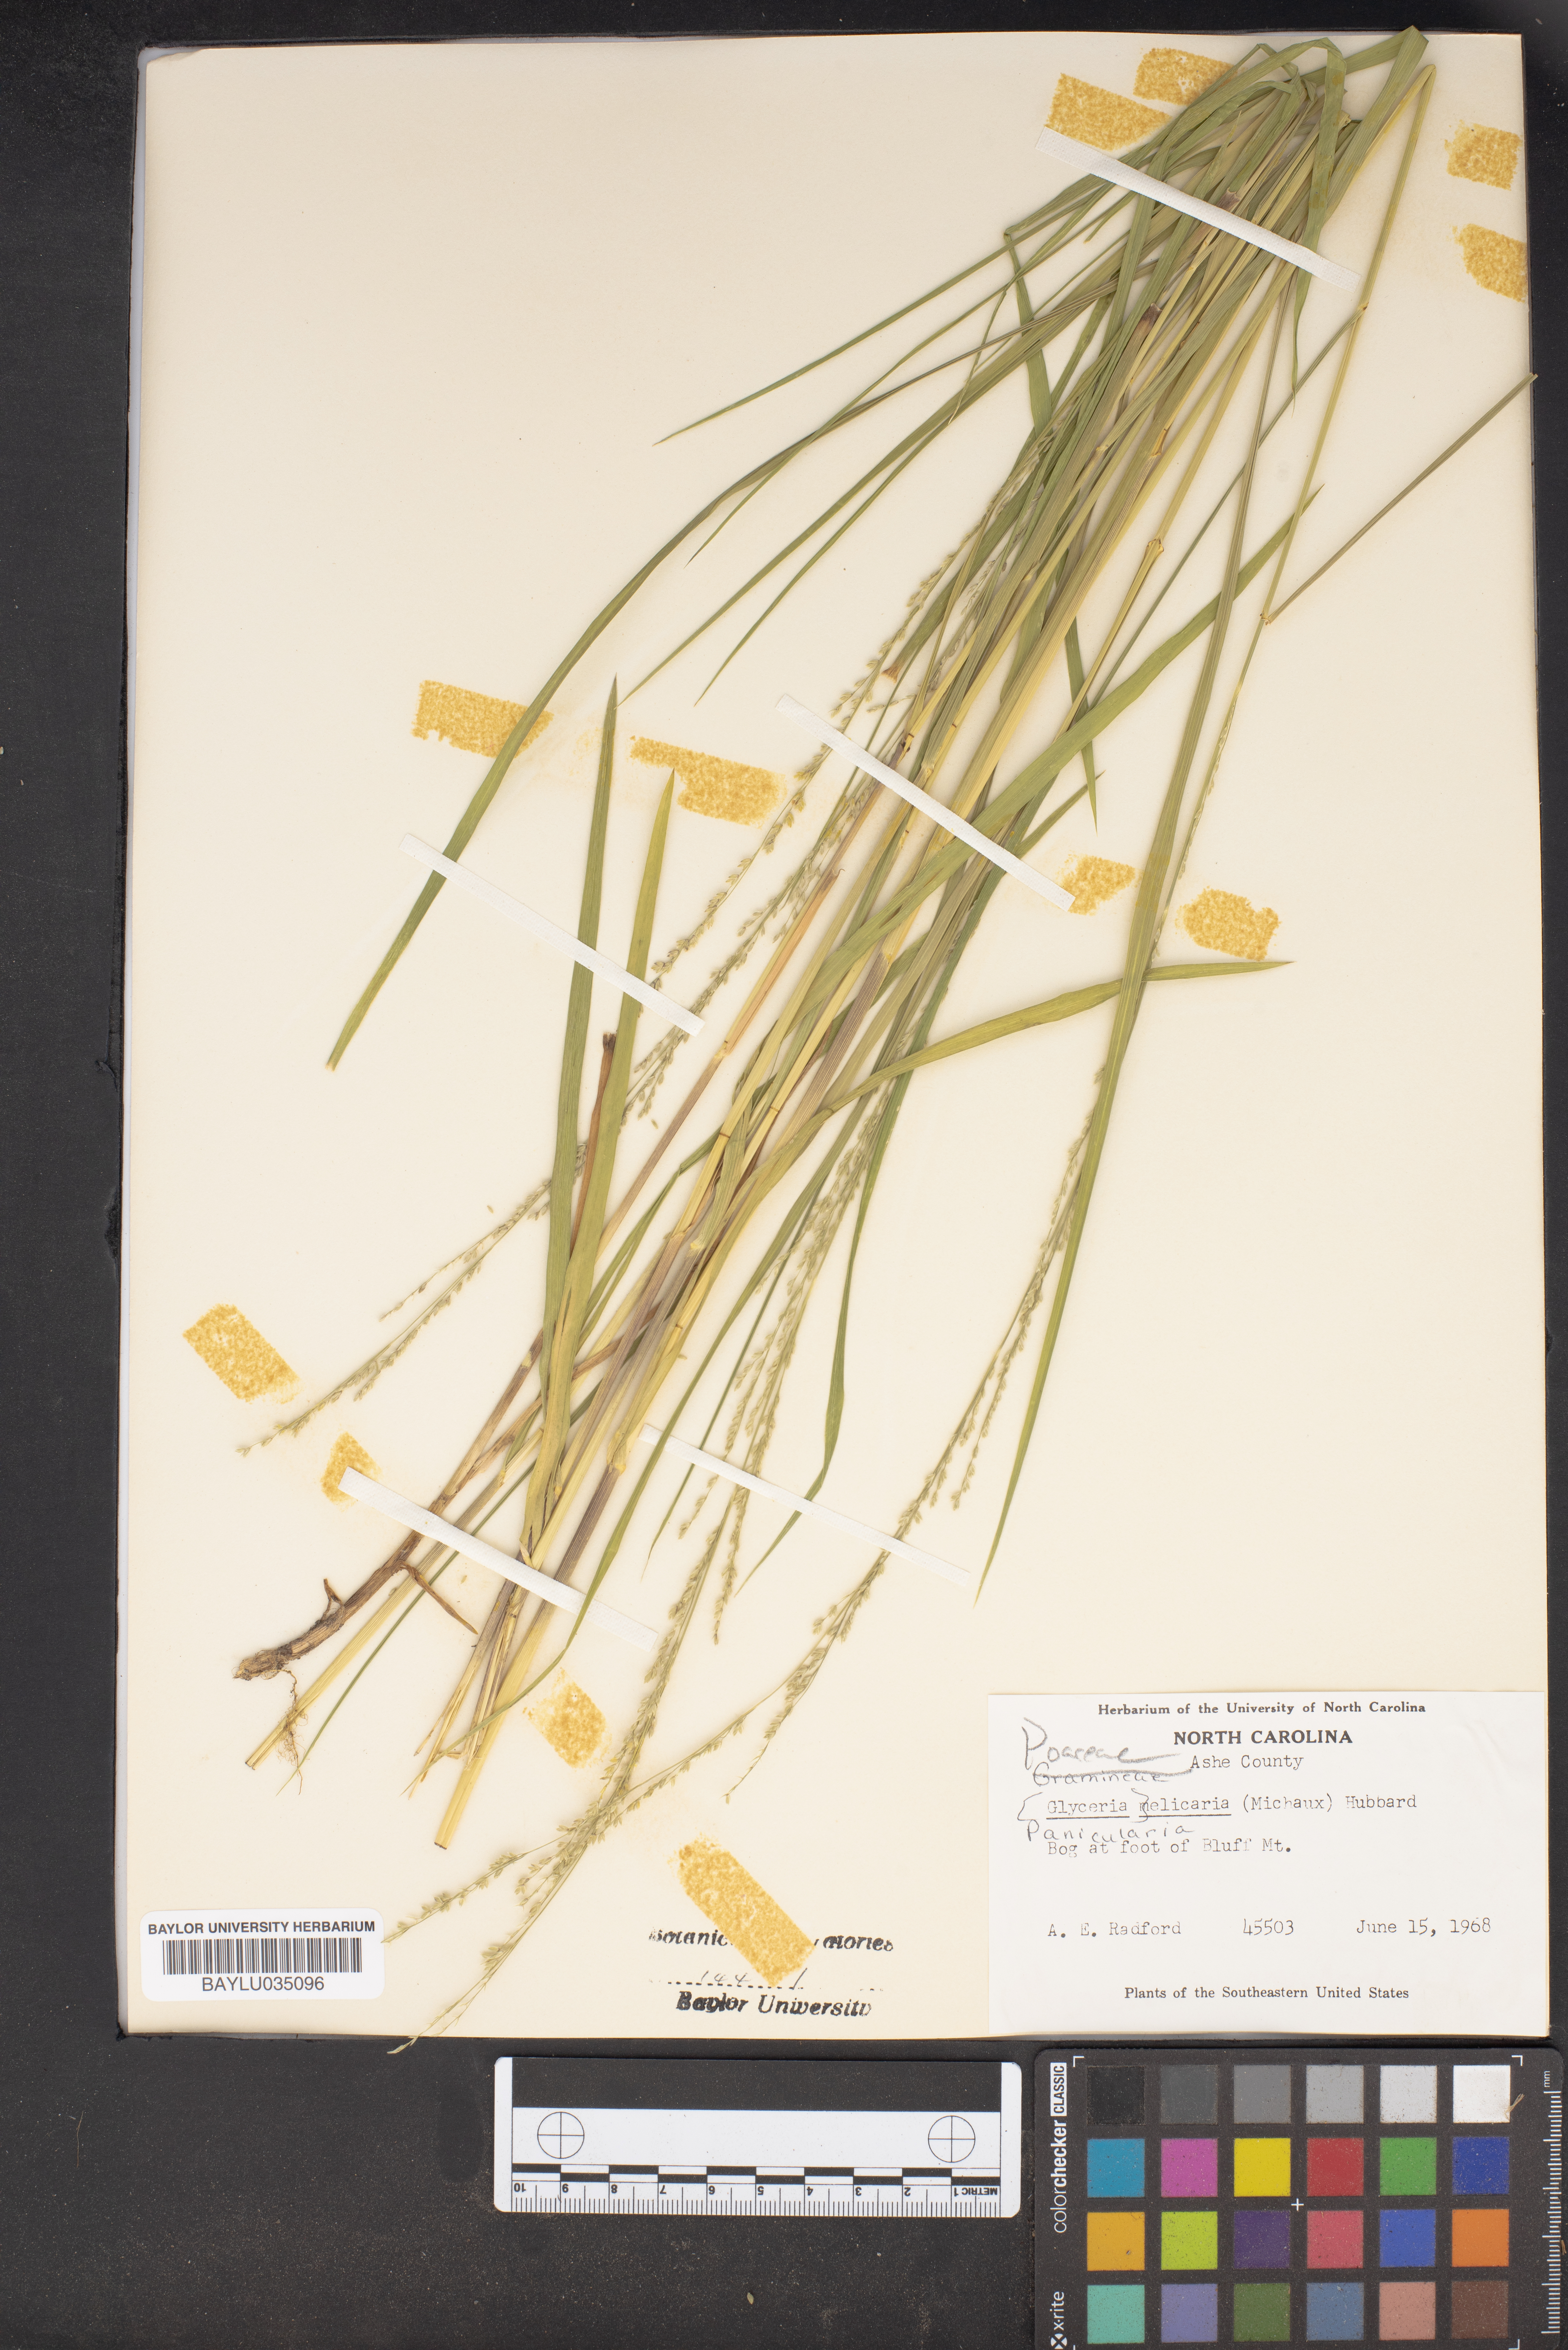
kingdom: Plantae
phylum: Tracheophyta
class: Liliopsida
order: Poales
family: Poaceae
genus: Glyceria
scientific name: Glyceria melicaria
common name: Long mannagrass
